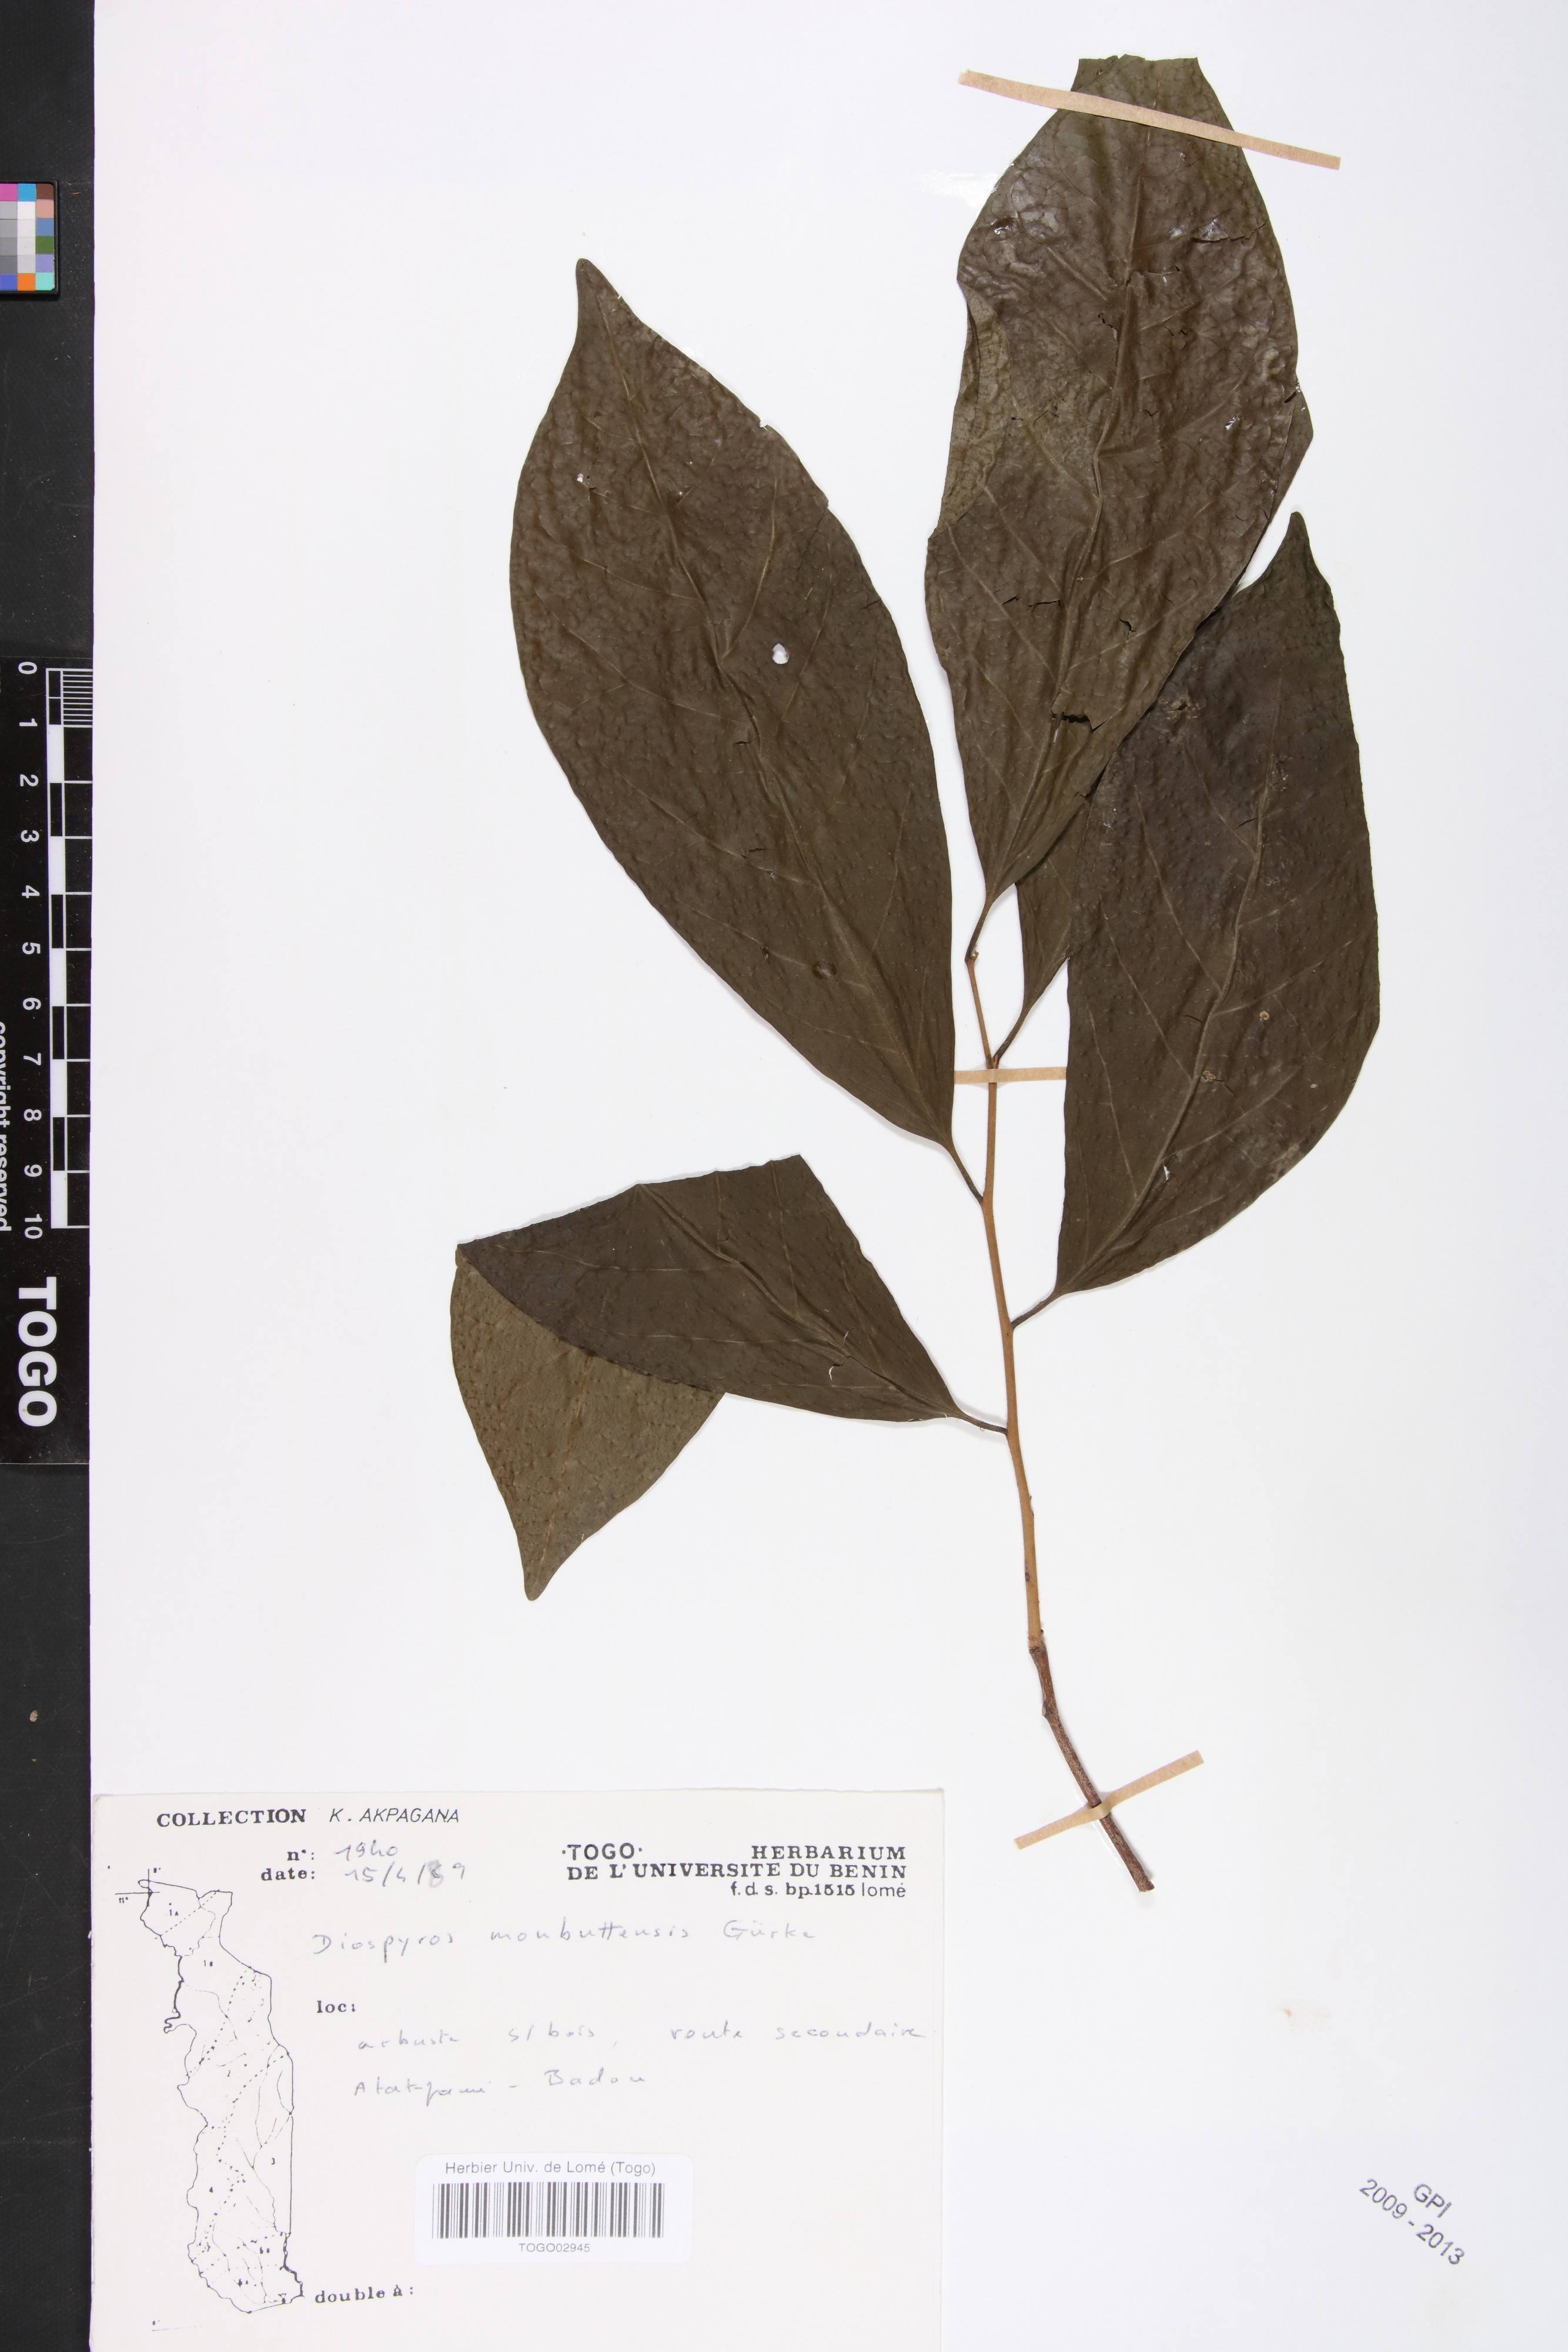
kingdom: Plantae
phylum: Tracheophyta
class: Magnoliopsida
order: Ericales
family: Ebenaceae
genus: Diospyros
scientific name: Diospyros monbuttensis
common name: Walking-stick ebony
